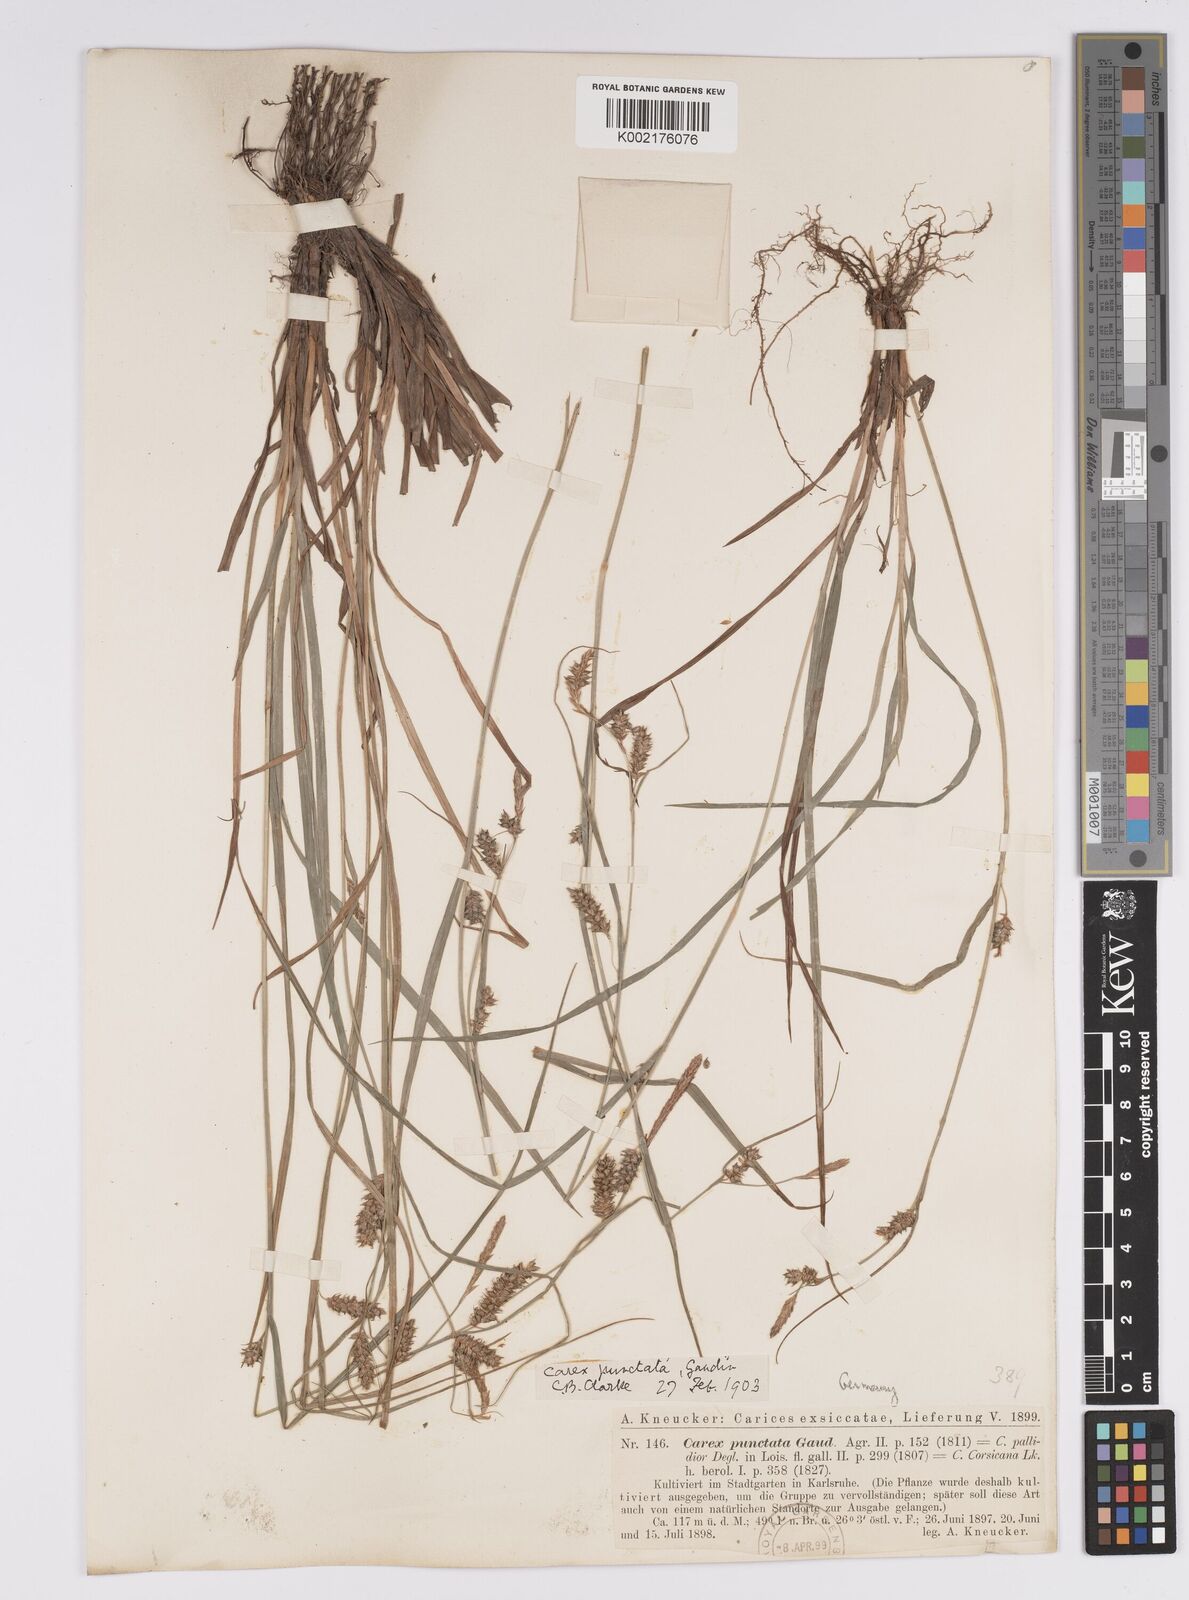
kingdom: Plantae
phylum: Tracheophyta
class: Liliopsida
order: Poales
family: Cyperaceae
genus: Carex
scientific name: Carex punctata
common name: Dotted sedge
